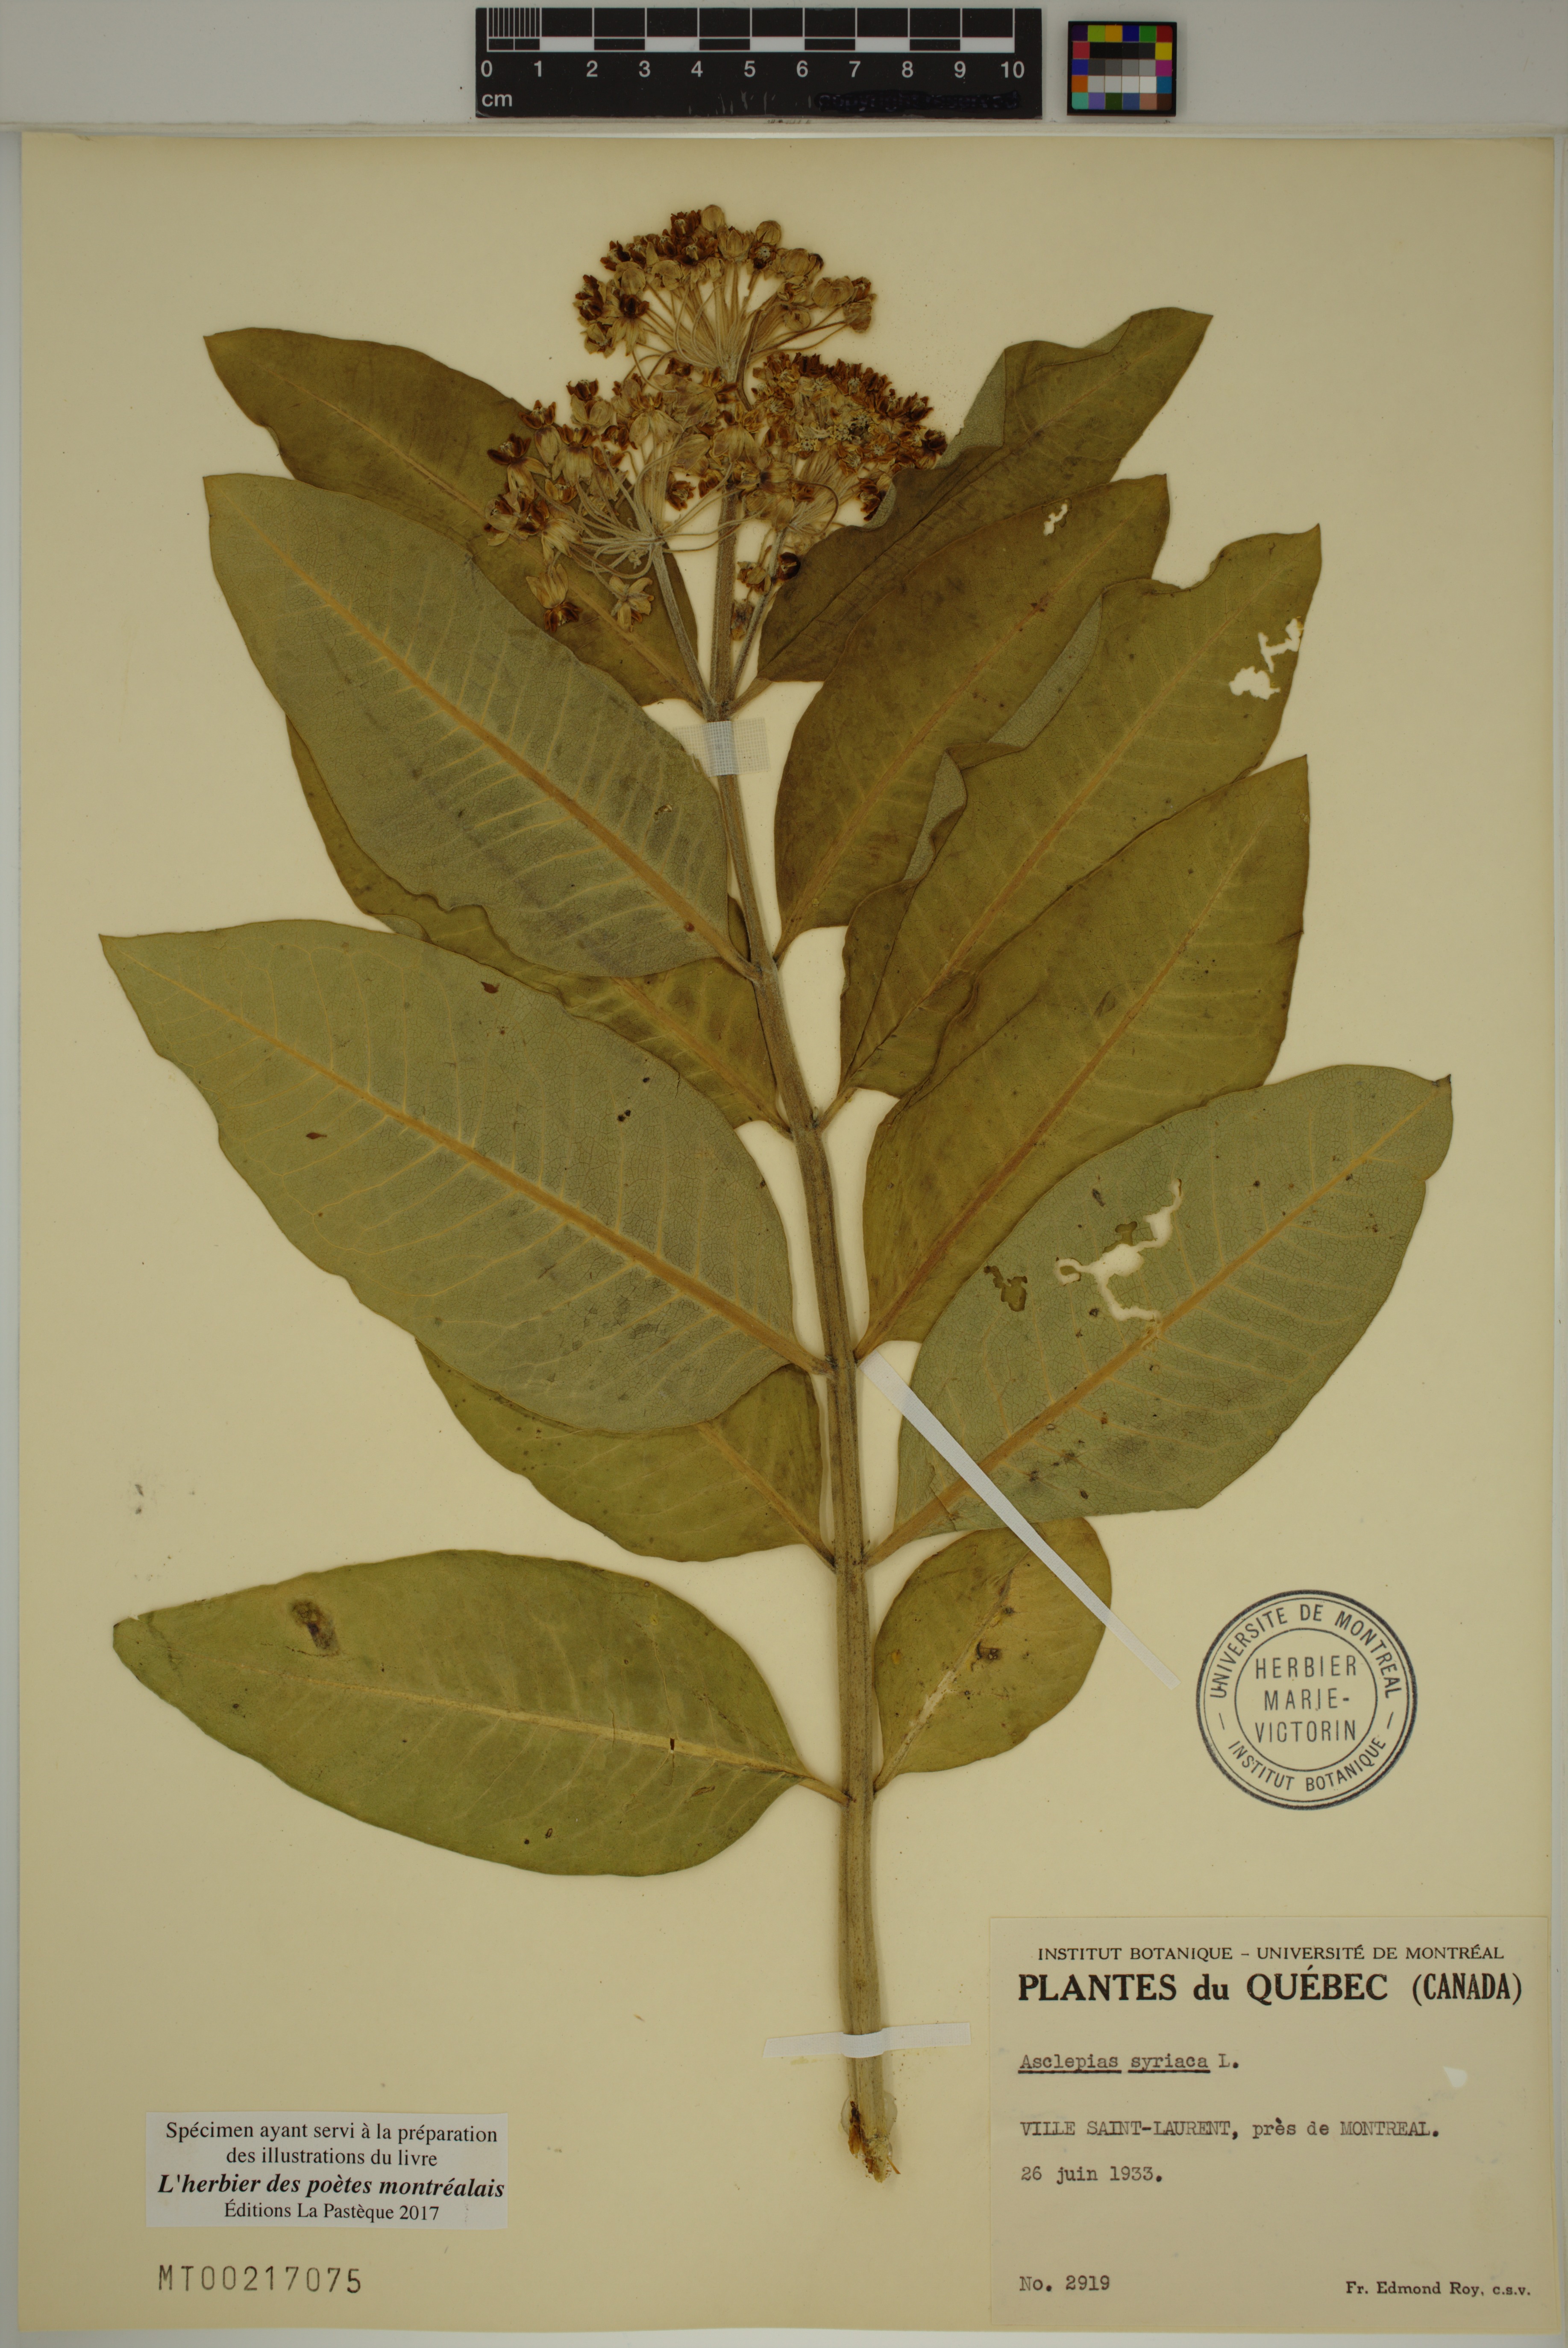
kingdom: Plantae
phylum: Tracheophyta
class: Magnoliopsida
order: Gentianales
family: Apocynaceae
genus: Asclepias
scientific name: Asclepias syriaca
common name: Common milkweed
